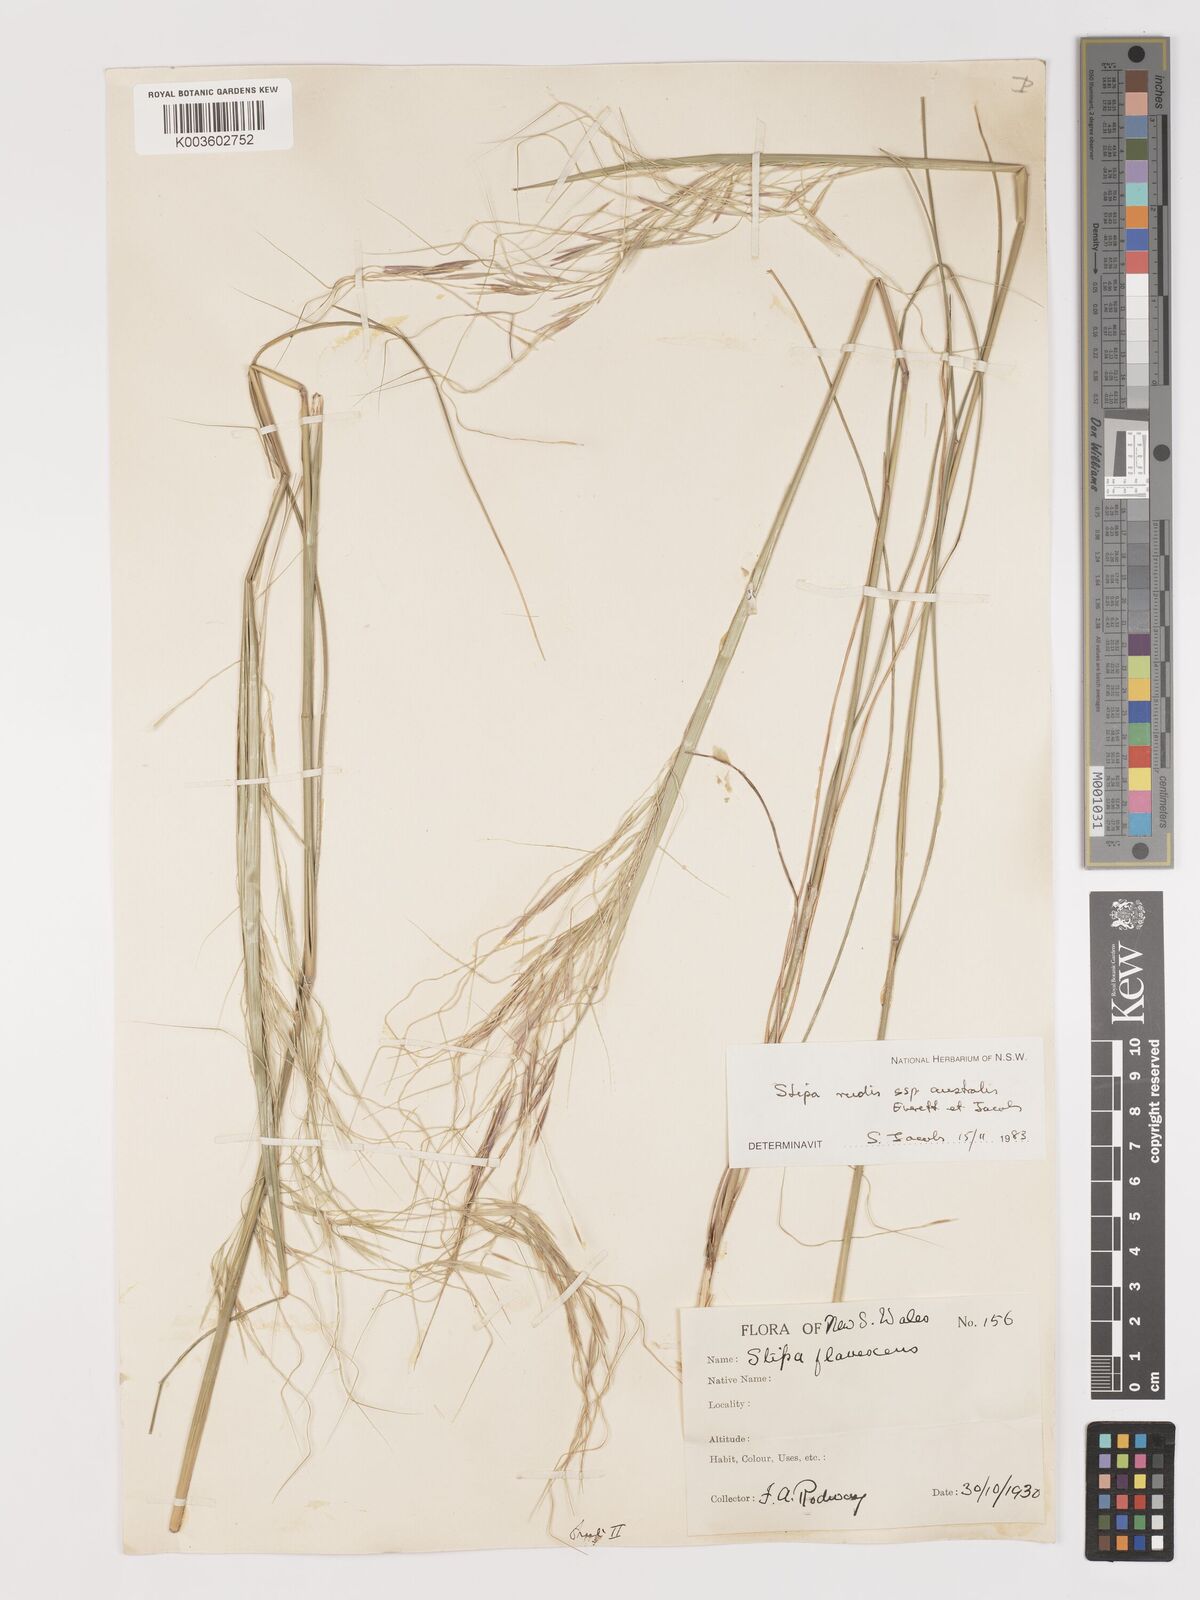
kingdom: Plantae
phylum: Tracheophyta
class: Liliopsida
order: Poales
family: Poaceae
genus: Austrostipa
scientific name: Austrostipa rudis
